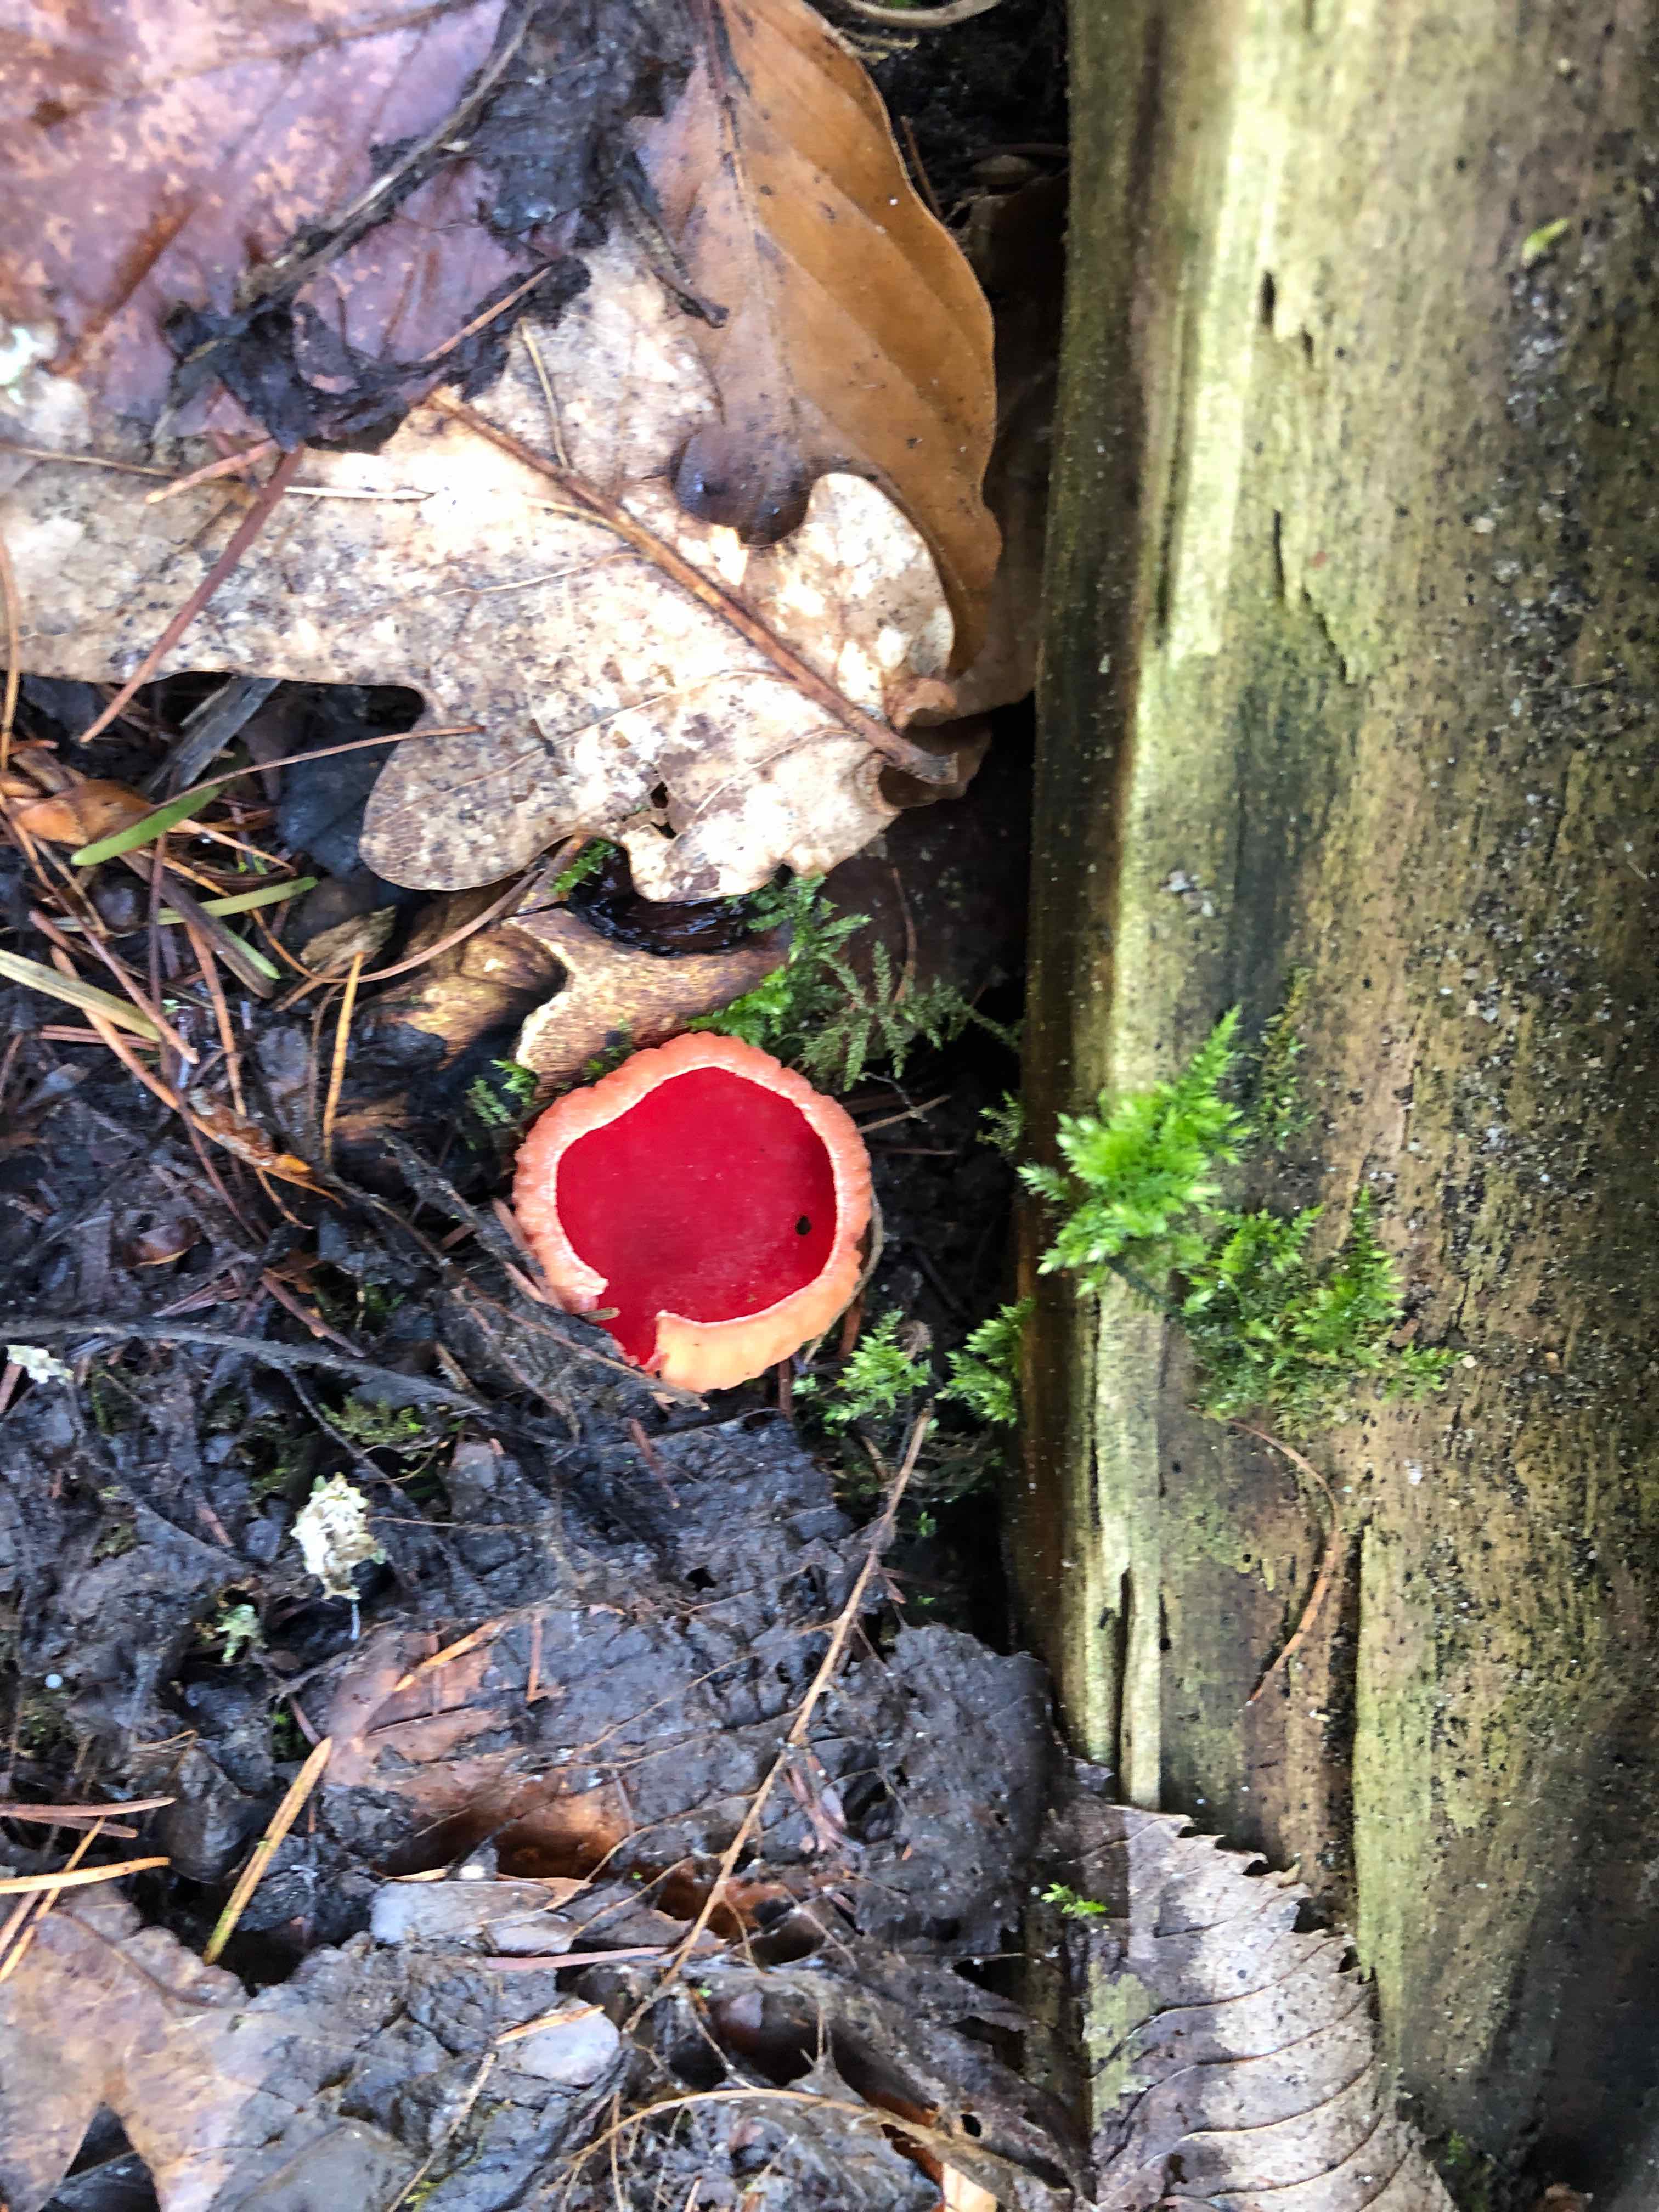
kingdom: Fungi
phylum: Ascomycota
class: Pezizomycetes
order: Pezizales
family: Sarcoscyphaceae
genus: Sarcoscypha
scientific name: Sarcoscypha austriaca
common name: krølhåret pragtbæger
